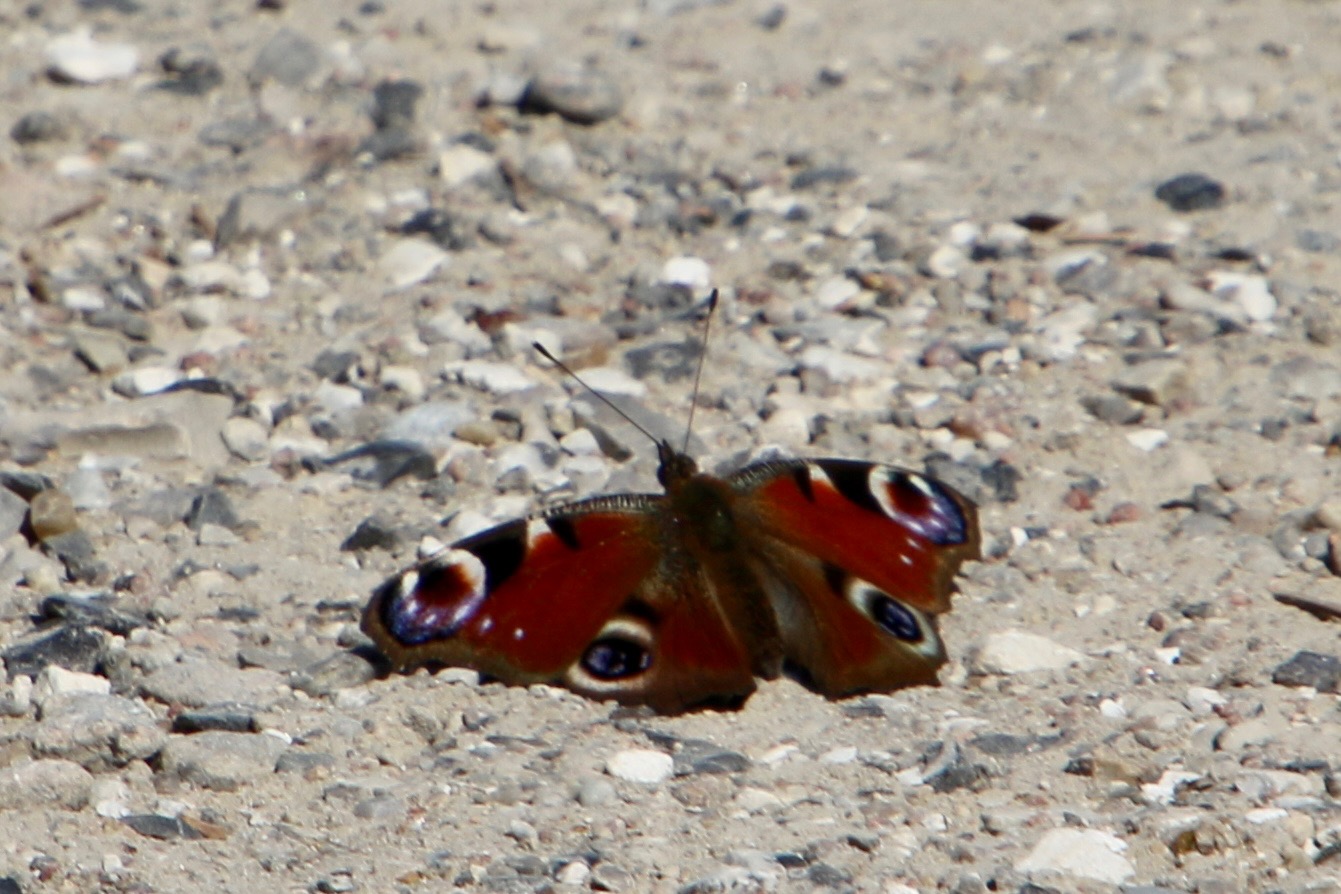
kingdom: Animalia
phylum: Arthropoda
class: Insecta
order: Lepidoptera
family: Nymphalidae
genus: Aglais
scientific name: Aglais io
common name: Dagpåfugleøje
